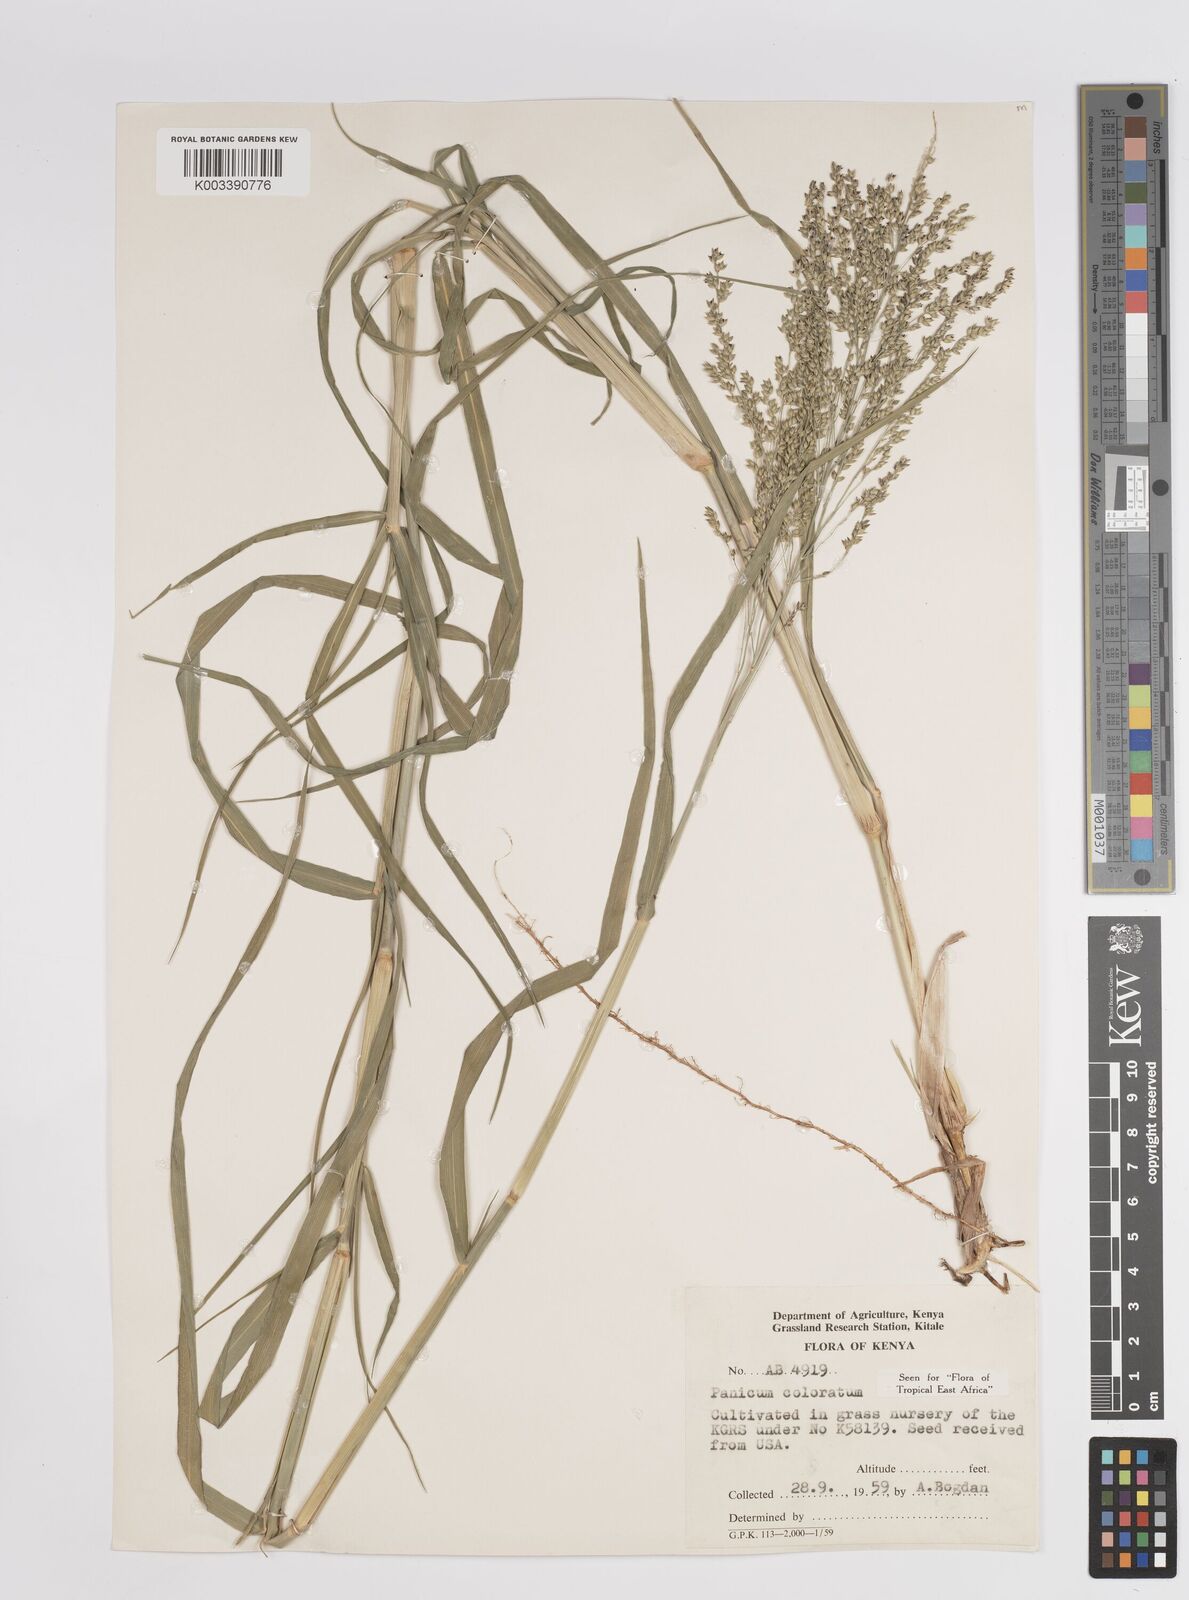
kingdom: Plantae
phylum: Tracheophyta
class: Liliopsida
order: Poales
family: Poaceae
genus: Panicum
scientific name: Panicum coloratum
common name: Kleingrass
